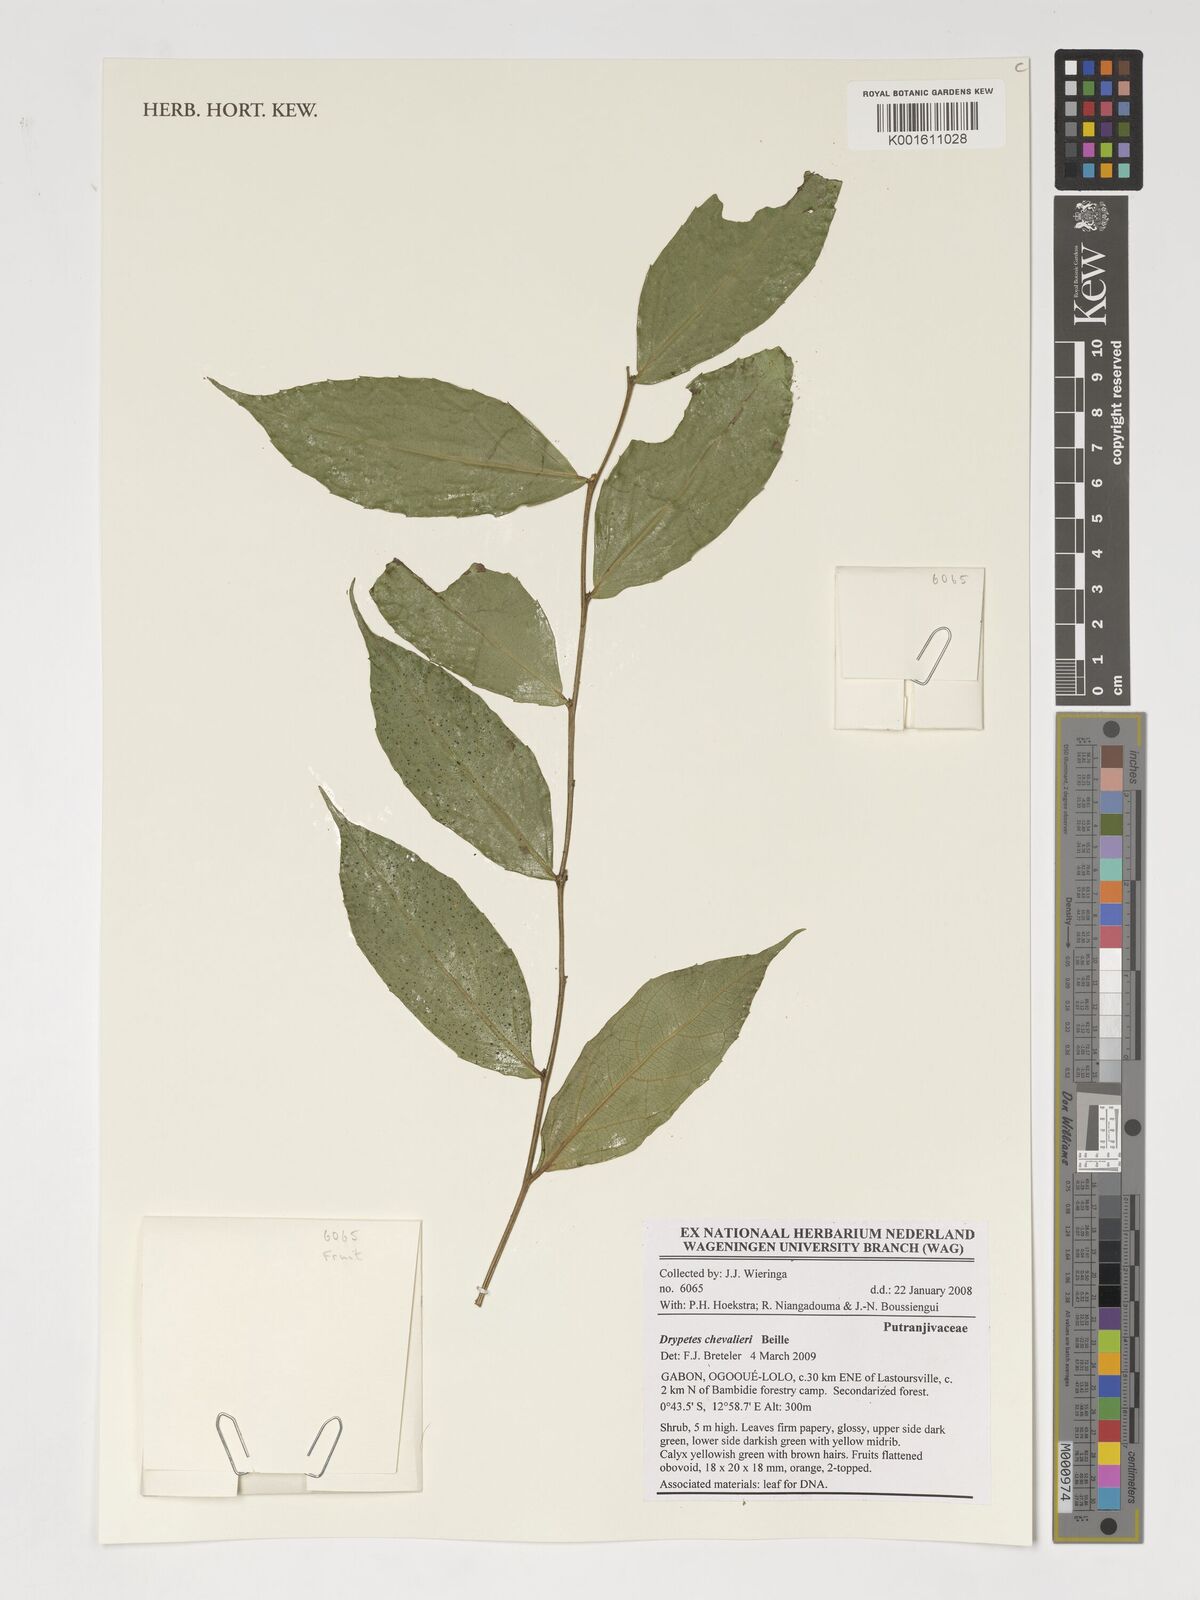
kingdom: Plantae
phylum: Tracheophyta
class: Magnoliopsida
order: Malpighiales
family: Putranjivaceae
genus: Drypetes
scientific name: Drypetes chevalieri
